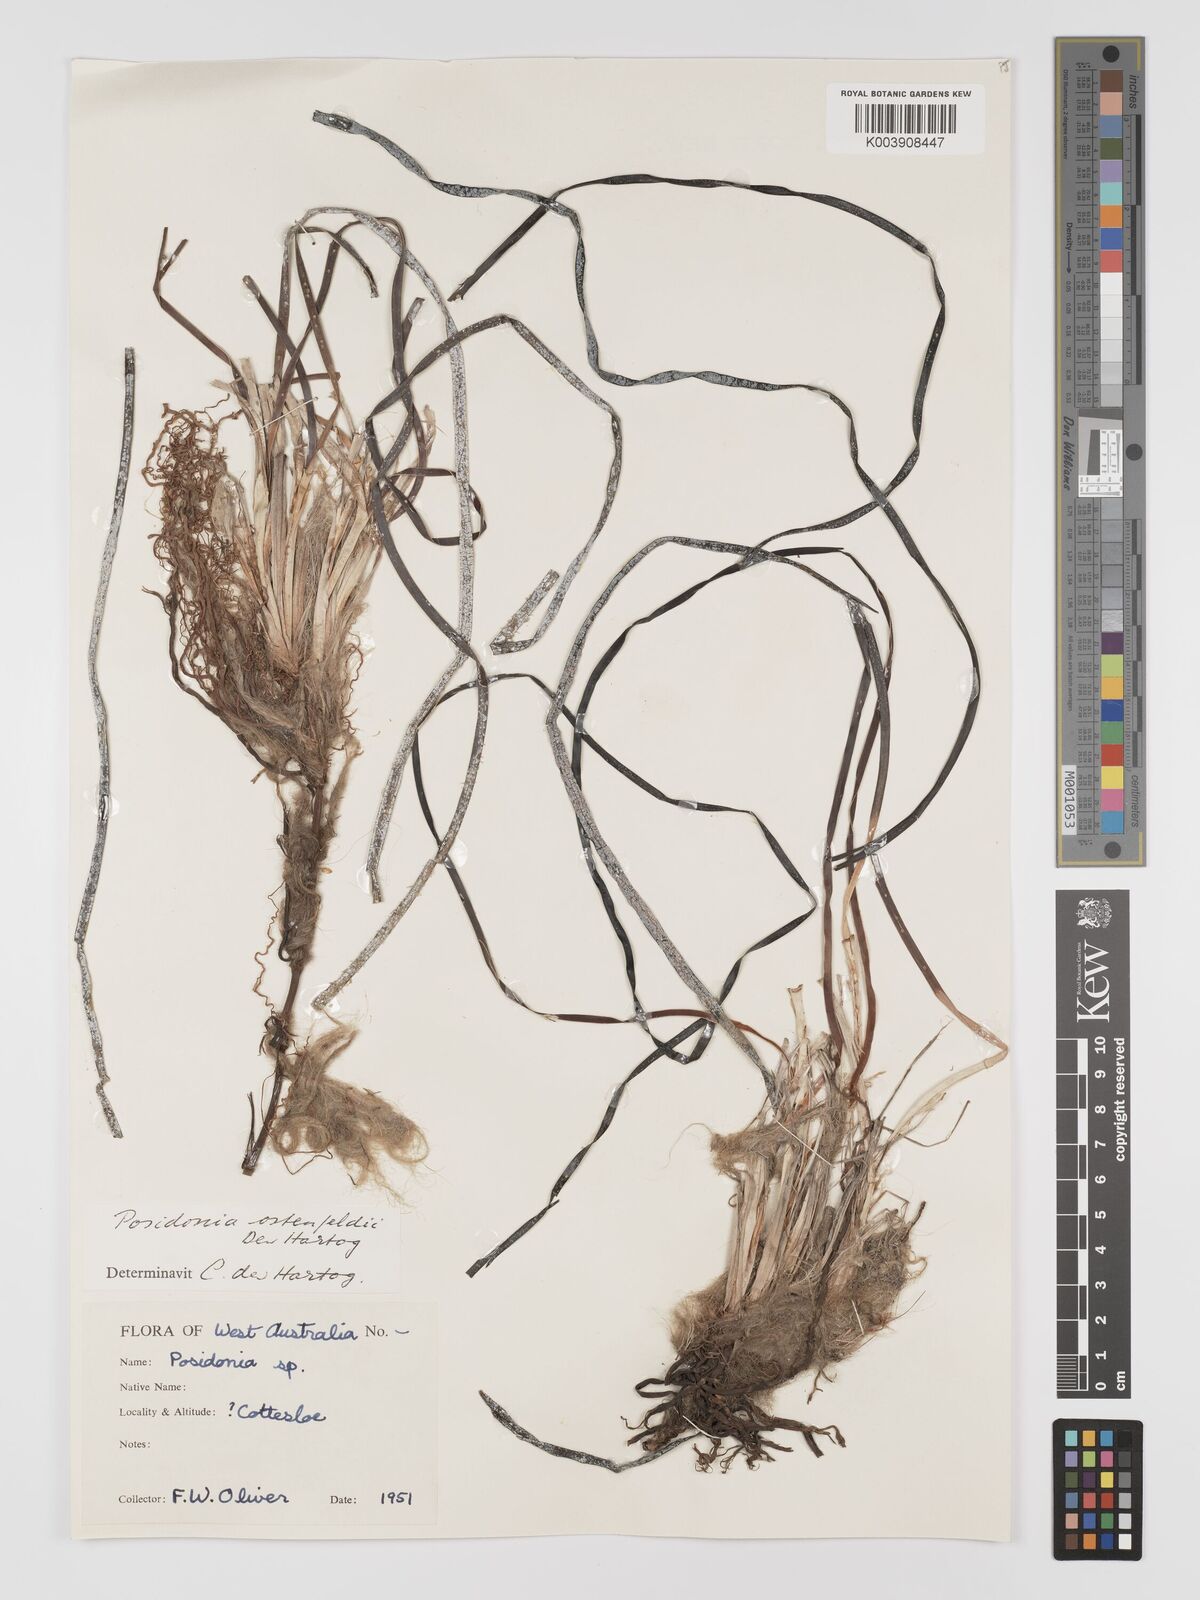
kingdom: Plantae
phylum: Tracheophyta
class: Liliopsida
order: Alismatales
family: Posidoniaceae
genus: Posidonia
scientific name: Posidonia ostenfeldii
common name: Species code: pf
